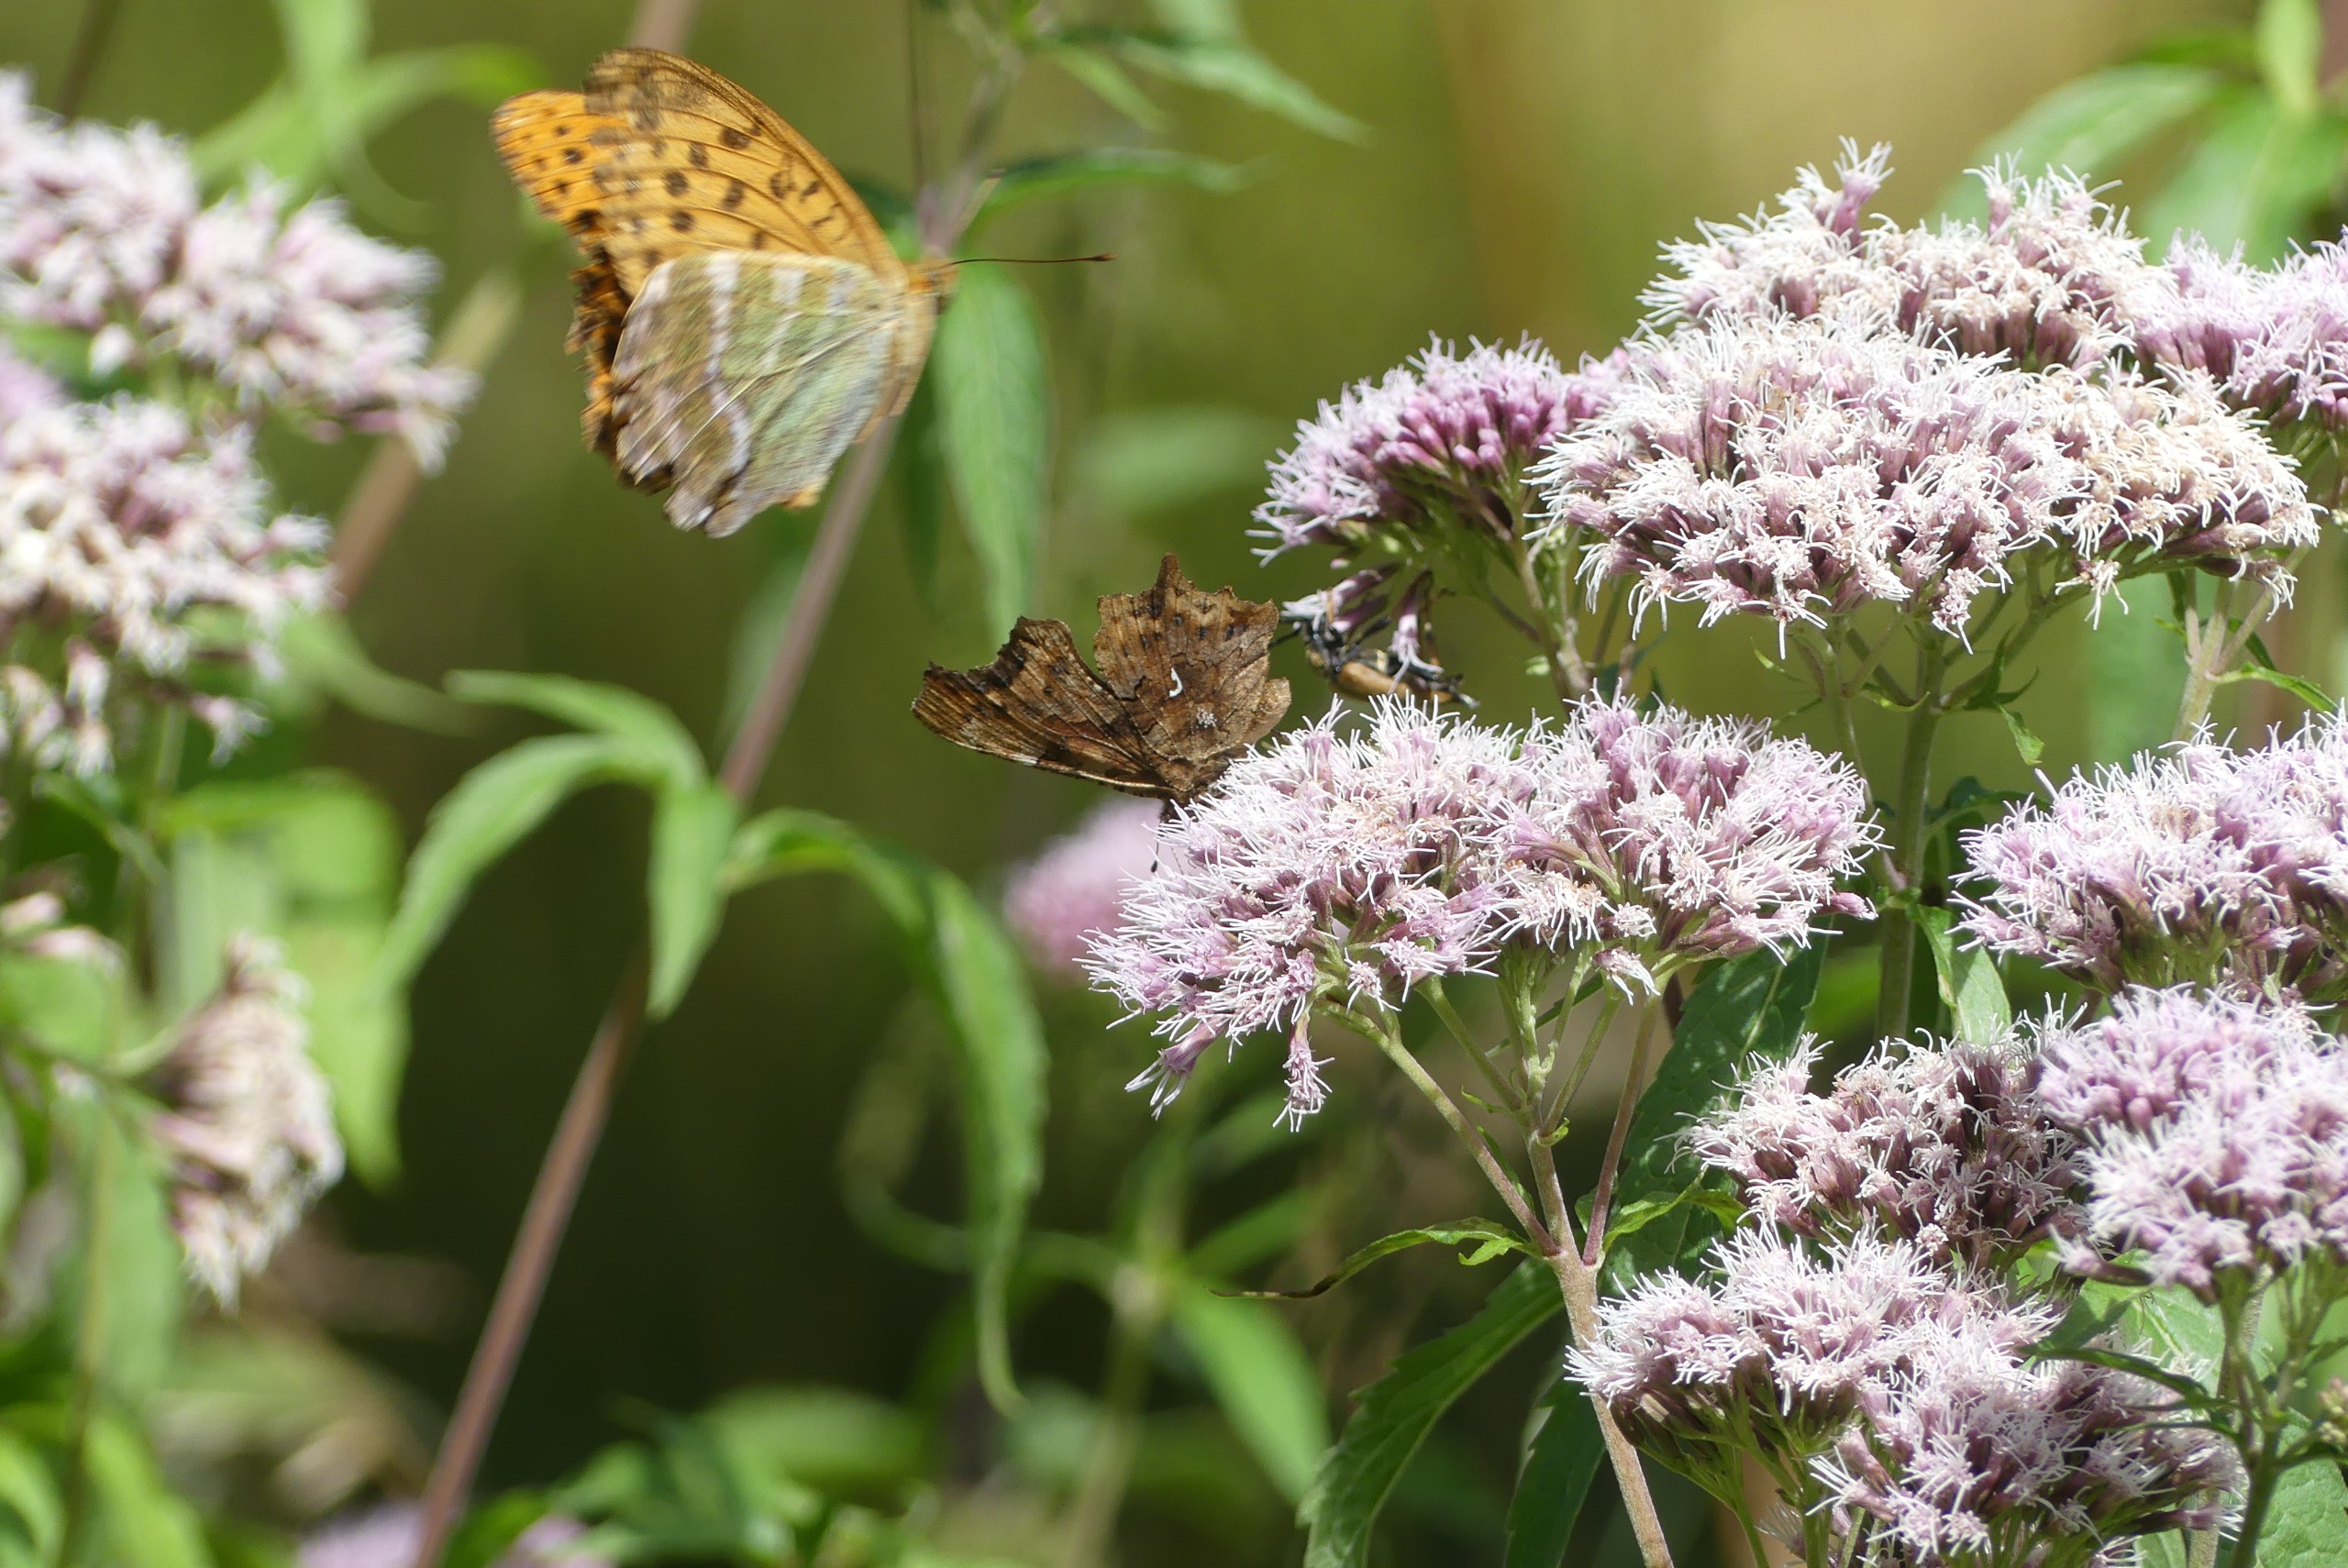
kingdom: Animalia
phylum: Arthropoda
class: Insecta
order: Lepidoptera
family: Nymphalidae
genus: Argynnis
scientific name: Argynnis paphia
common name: Kejserkåbe
